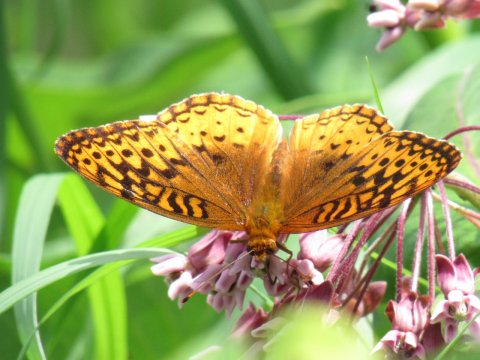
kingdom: Animalia
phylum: Arthropoda
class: Insecta
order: Lepidoptera
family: Nymphalidae
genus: Speyeria
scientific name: Speyeria cybele
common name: Great Spangled Fritillary
